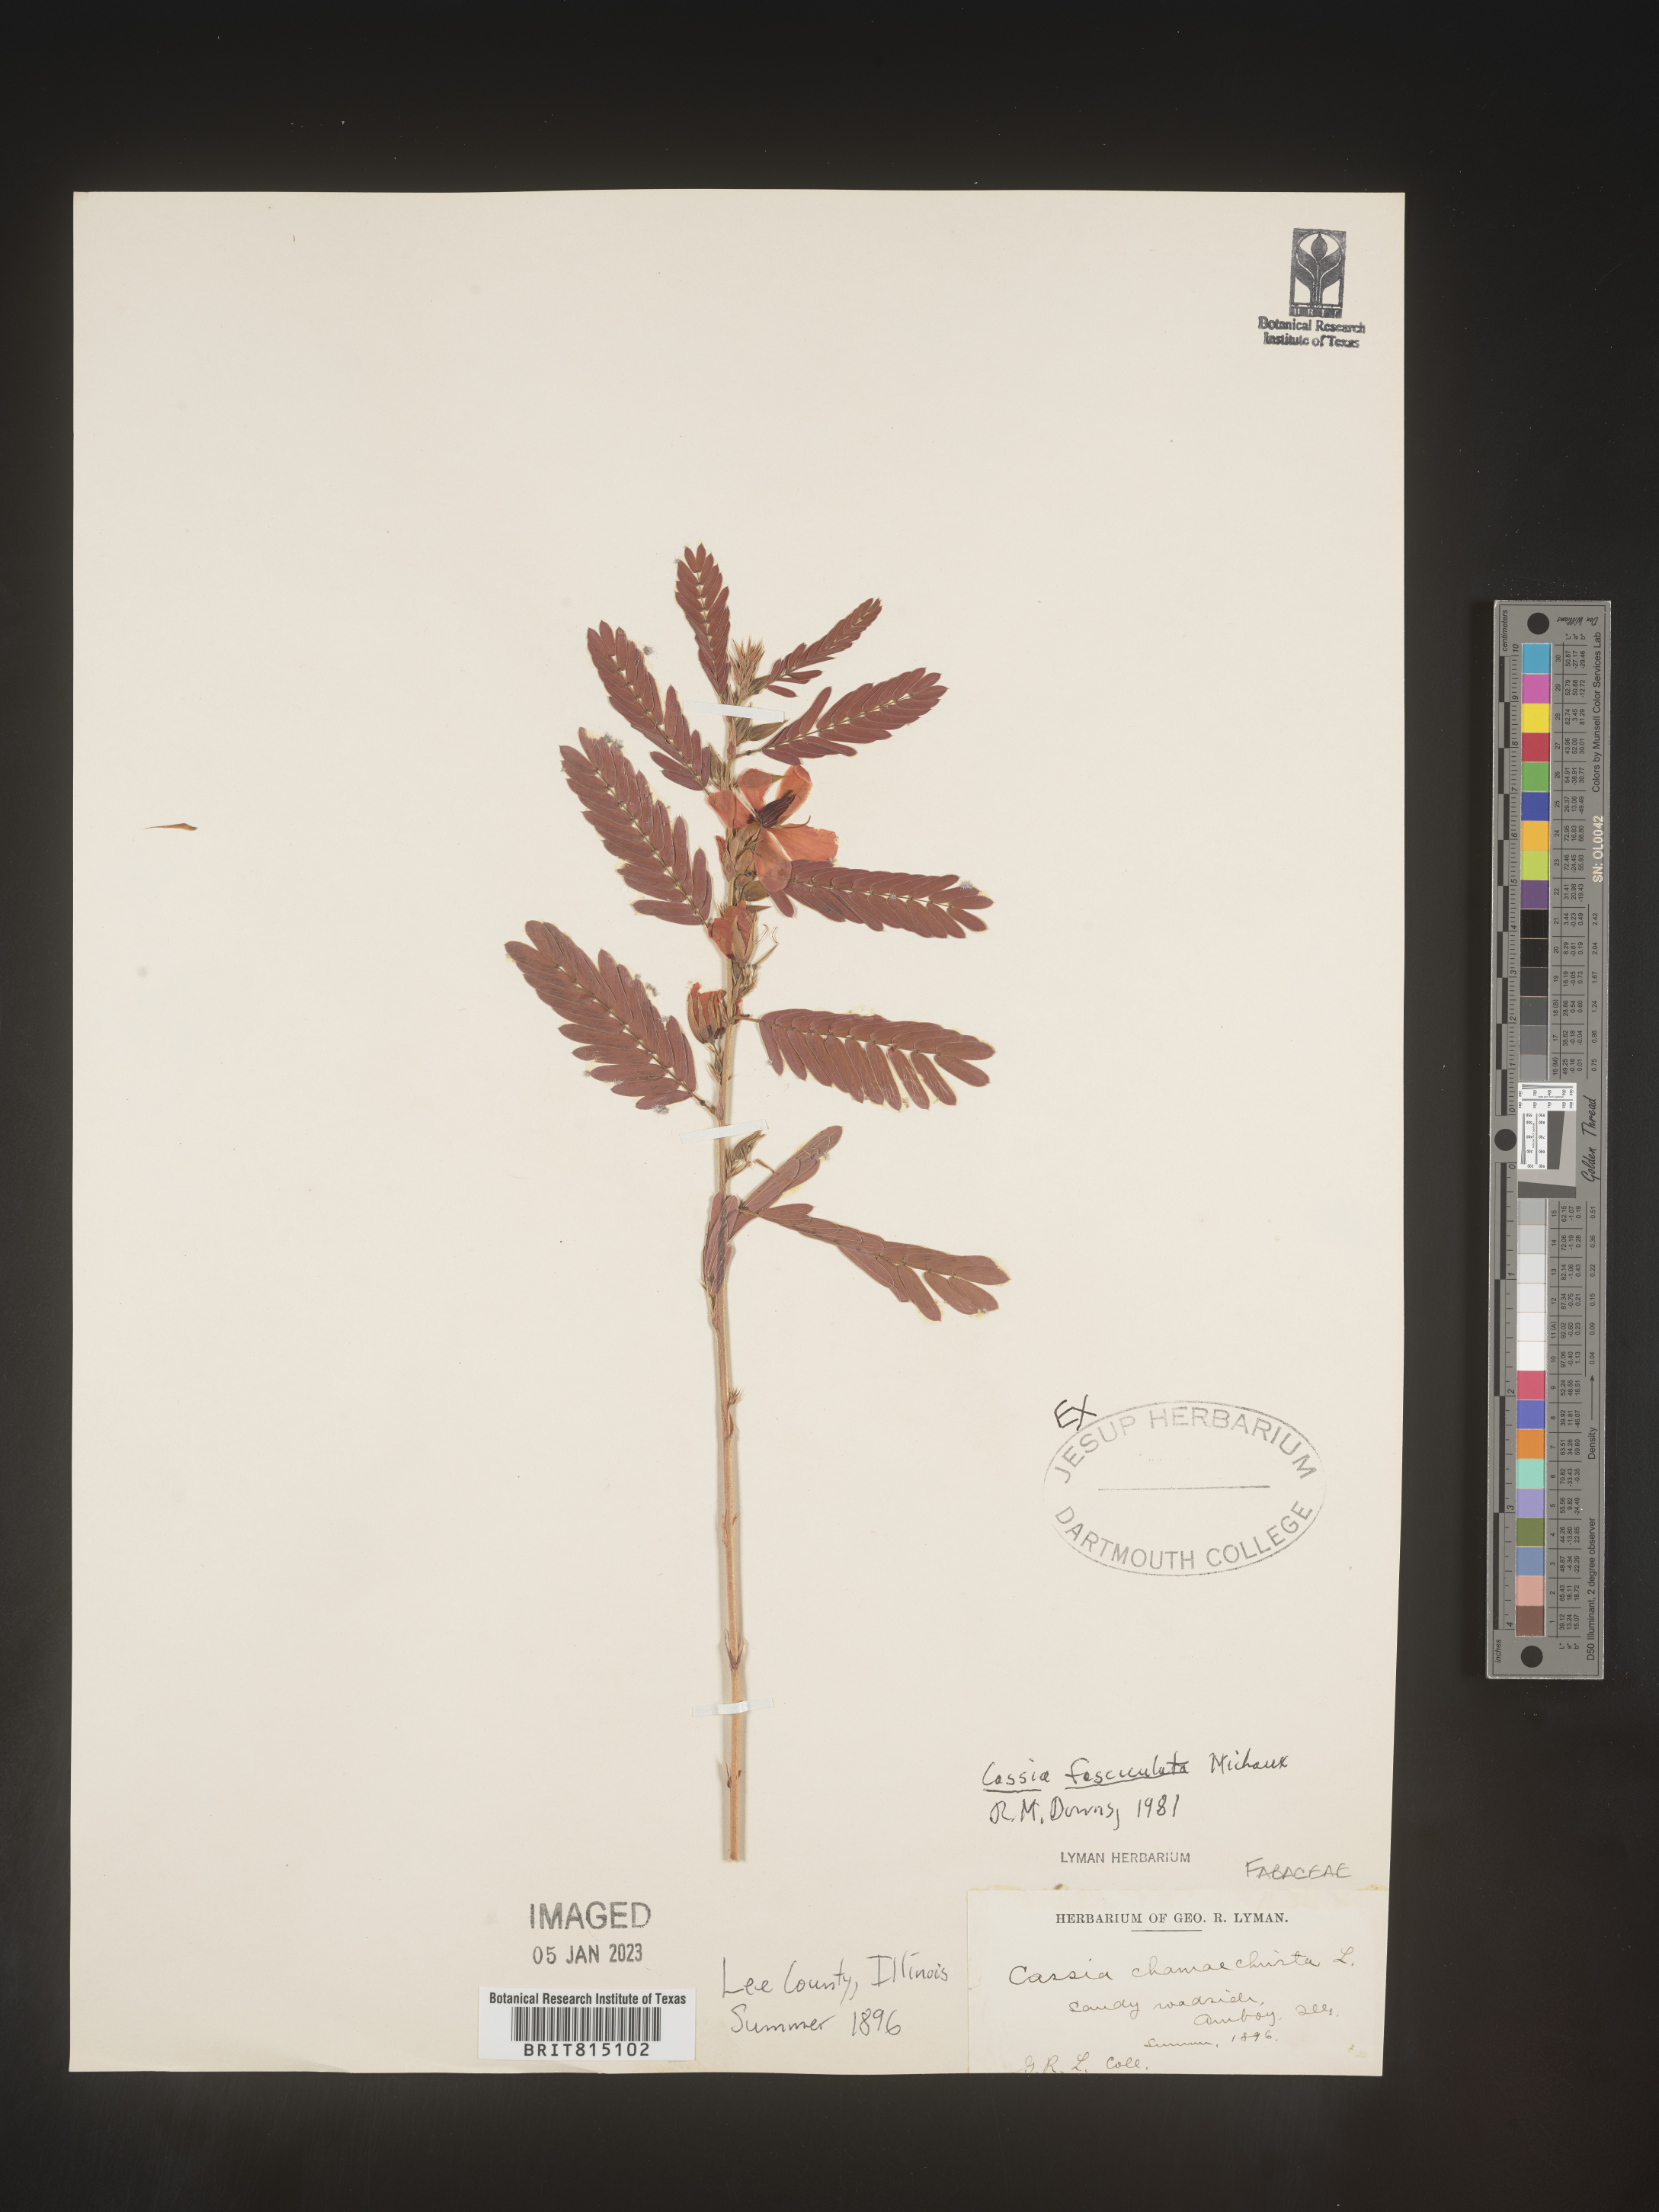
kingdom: Plantae
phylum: Tracheophyta
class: Magnoliopsida
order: Fabales
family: Fabaceae
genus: Chamaecrista
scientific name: Chamaecrista fasciculata
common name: Golden cassia
